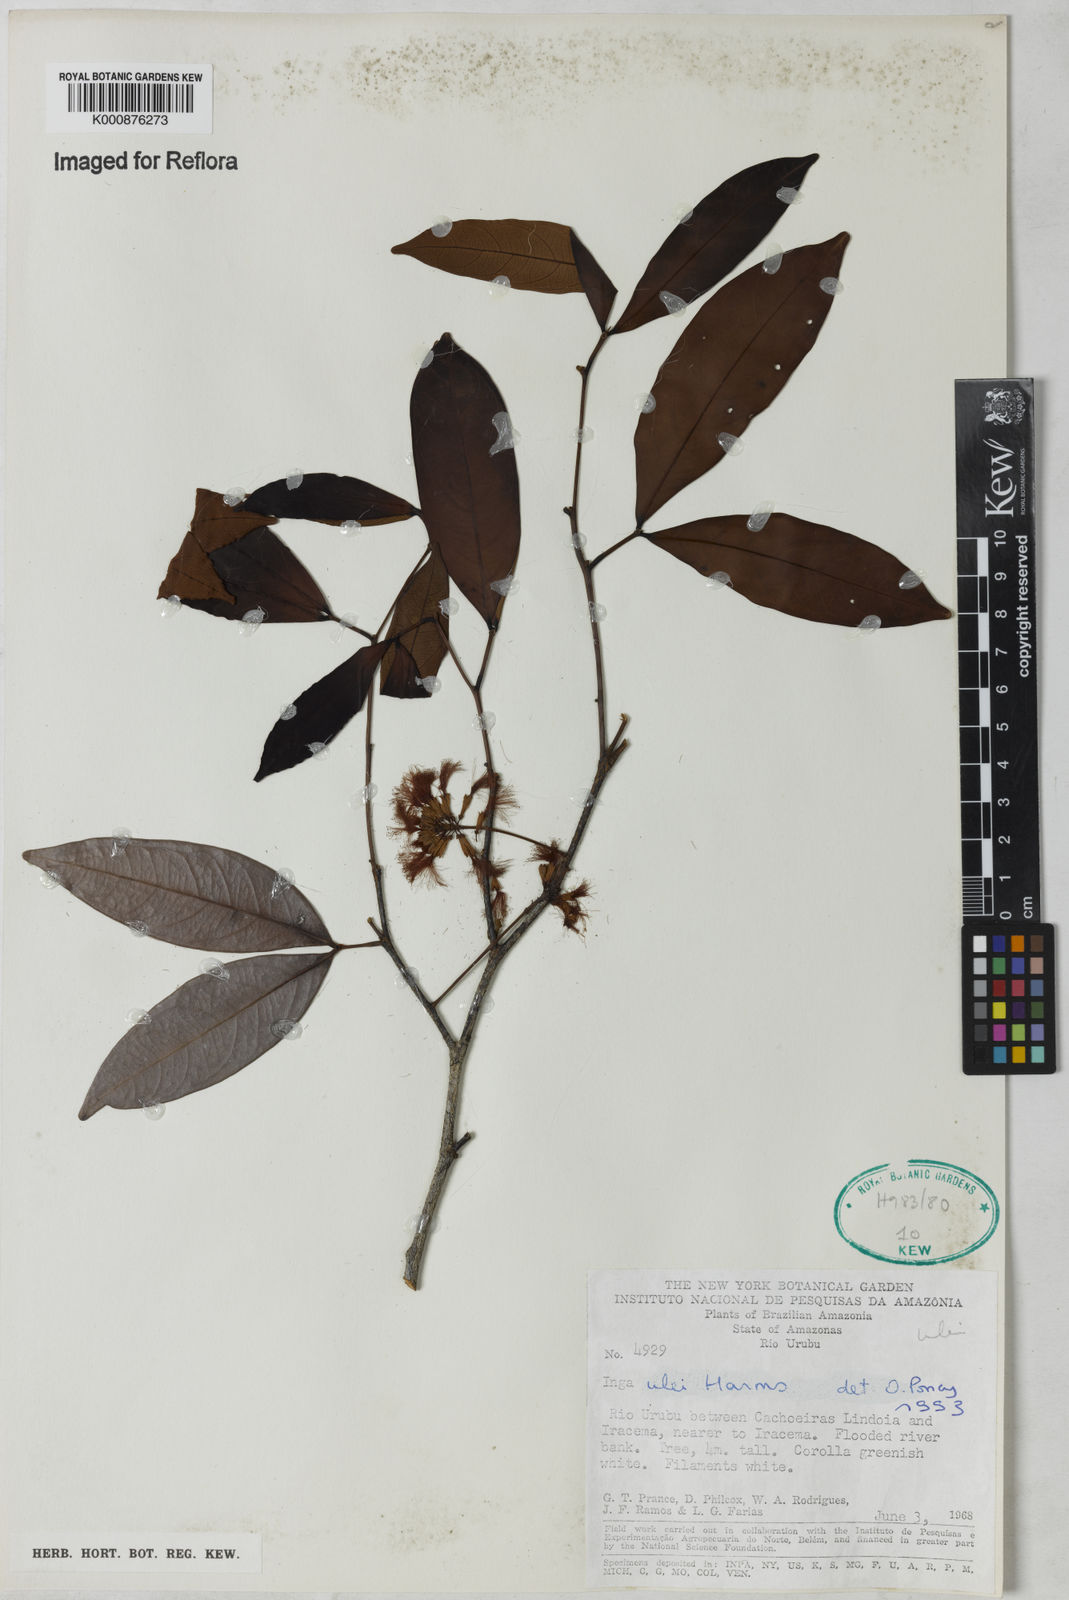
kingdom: Plantae
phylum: Tracheophyta
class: Magnoliopsida
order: Fabales
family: Fabaceae
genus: Inga
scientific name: Inga ulei
